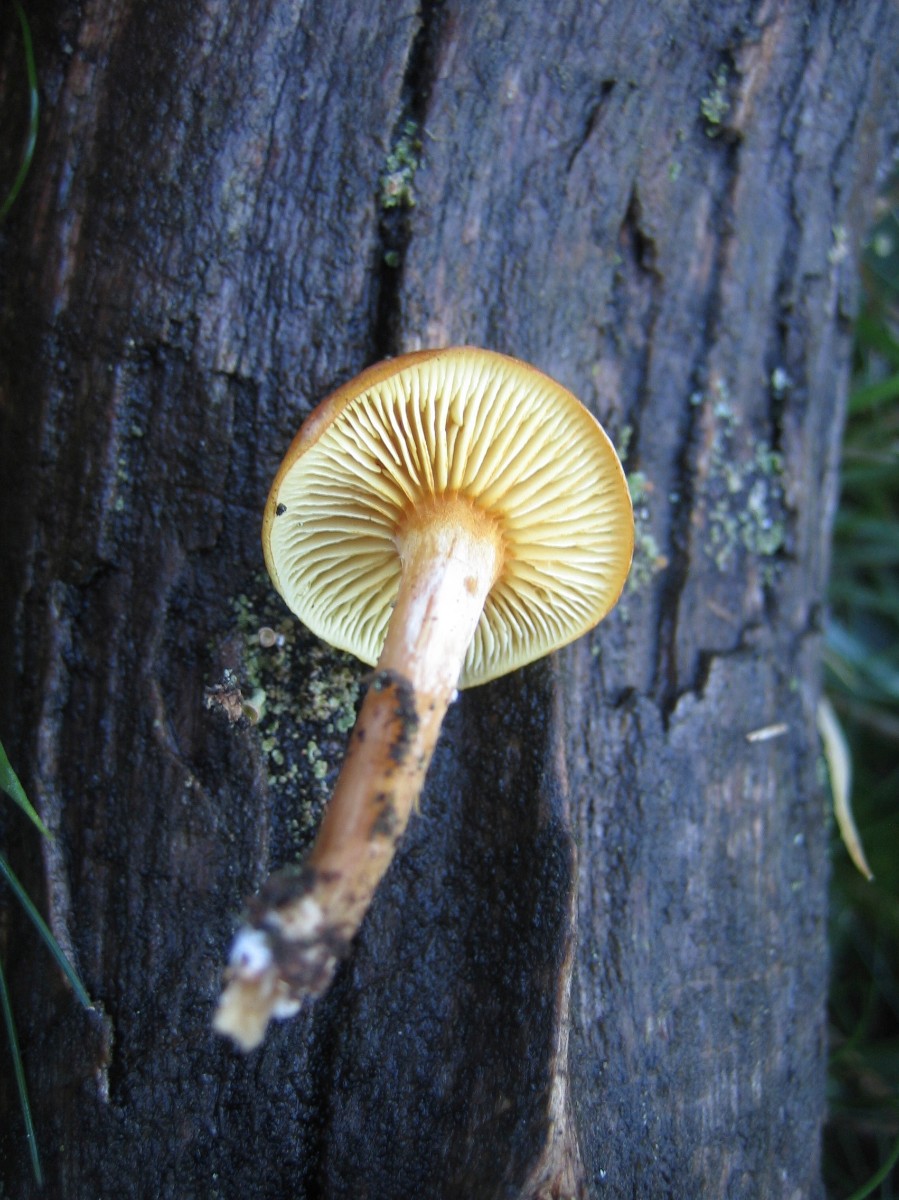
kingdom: Fungi
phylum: Basidiomycota
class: Agaricomycetes
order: Agaricales
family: Hymenogastraceae
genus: Gymnopilus
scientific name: Gymnopilus penetrans
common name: plettet flammehat
